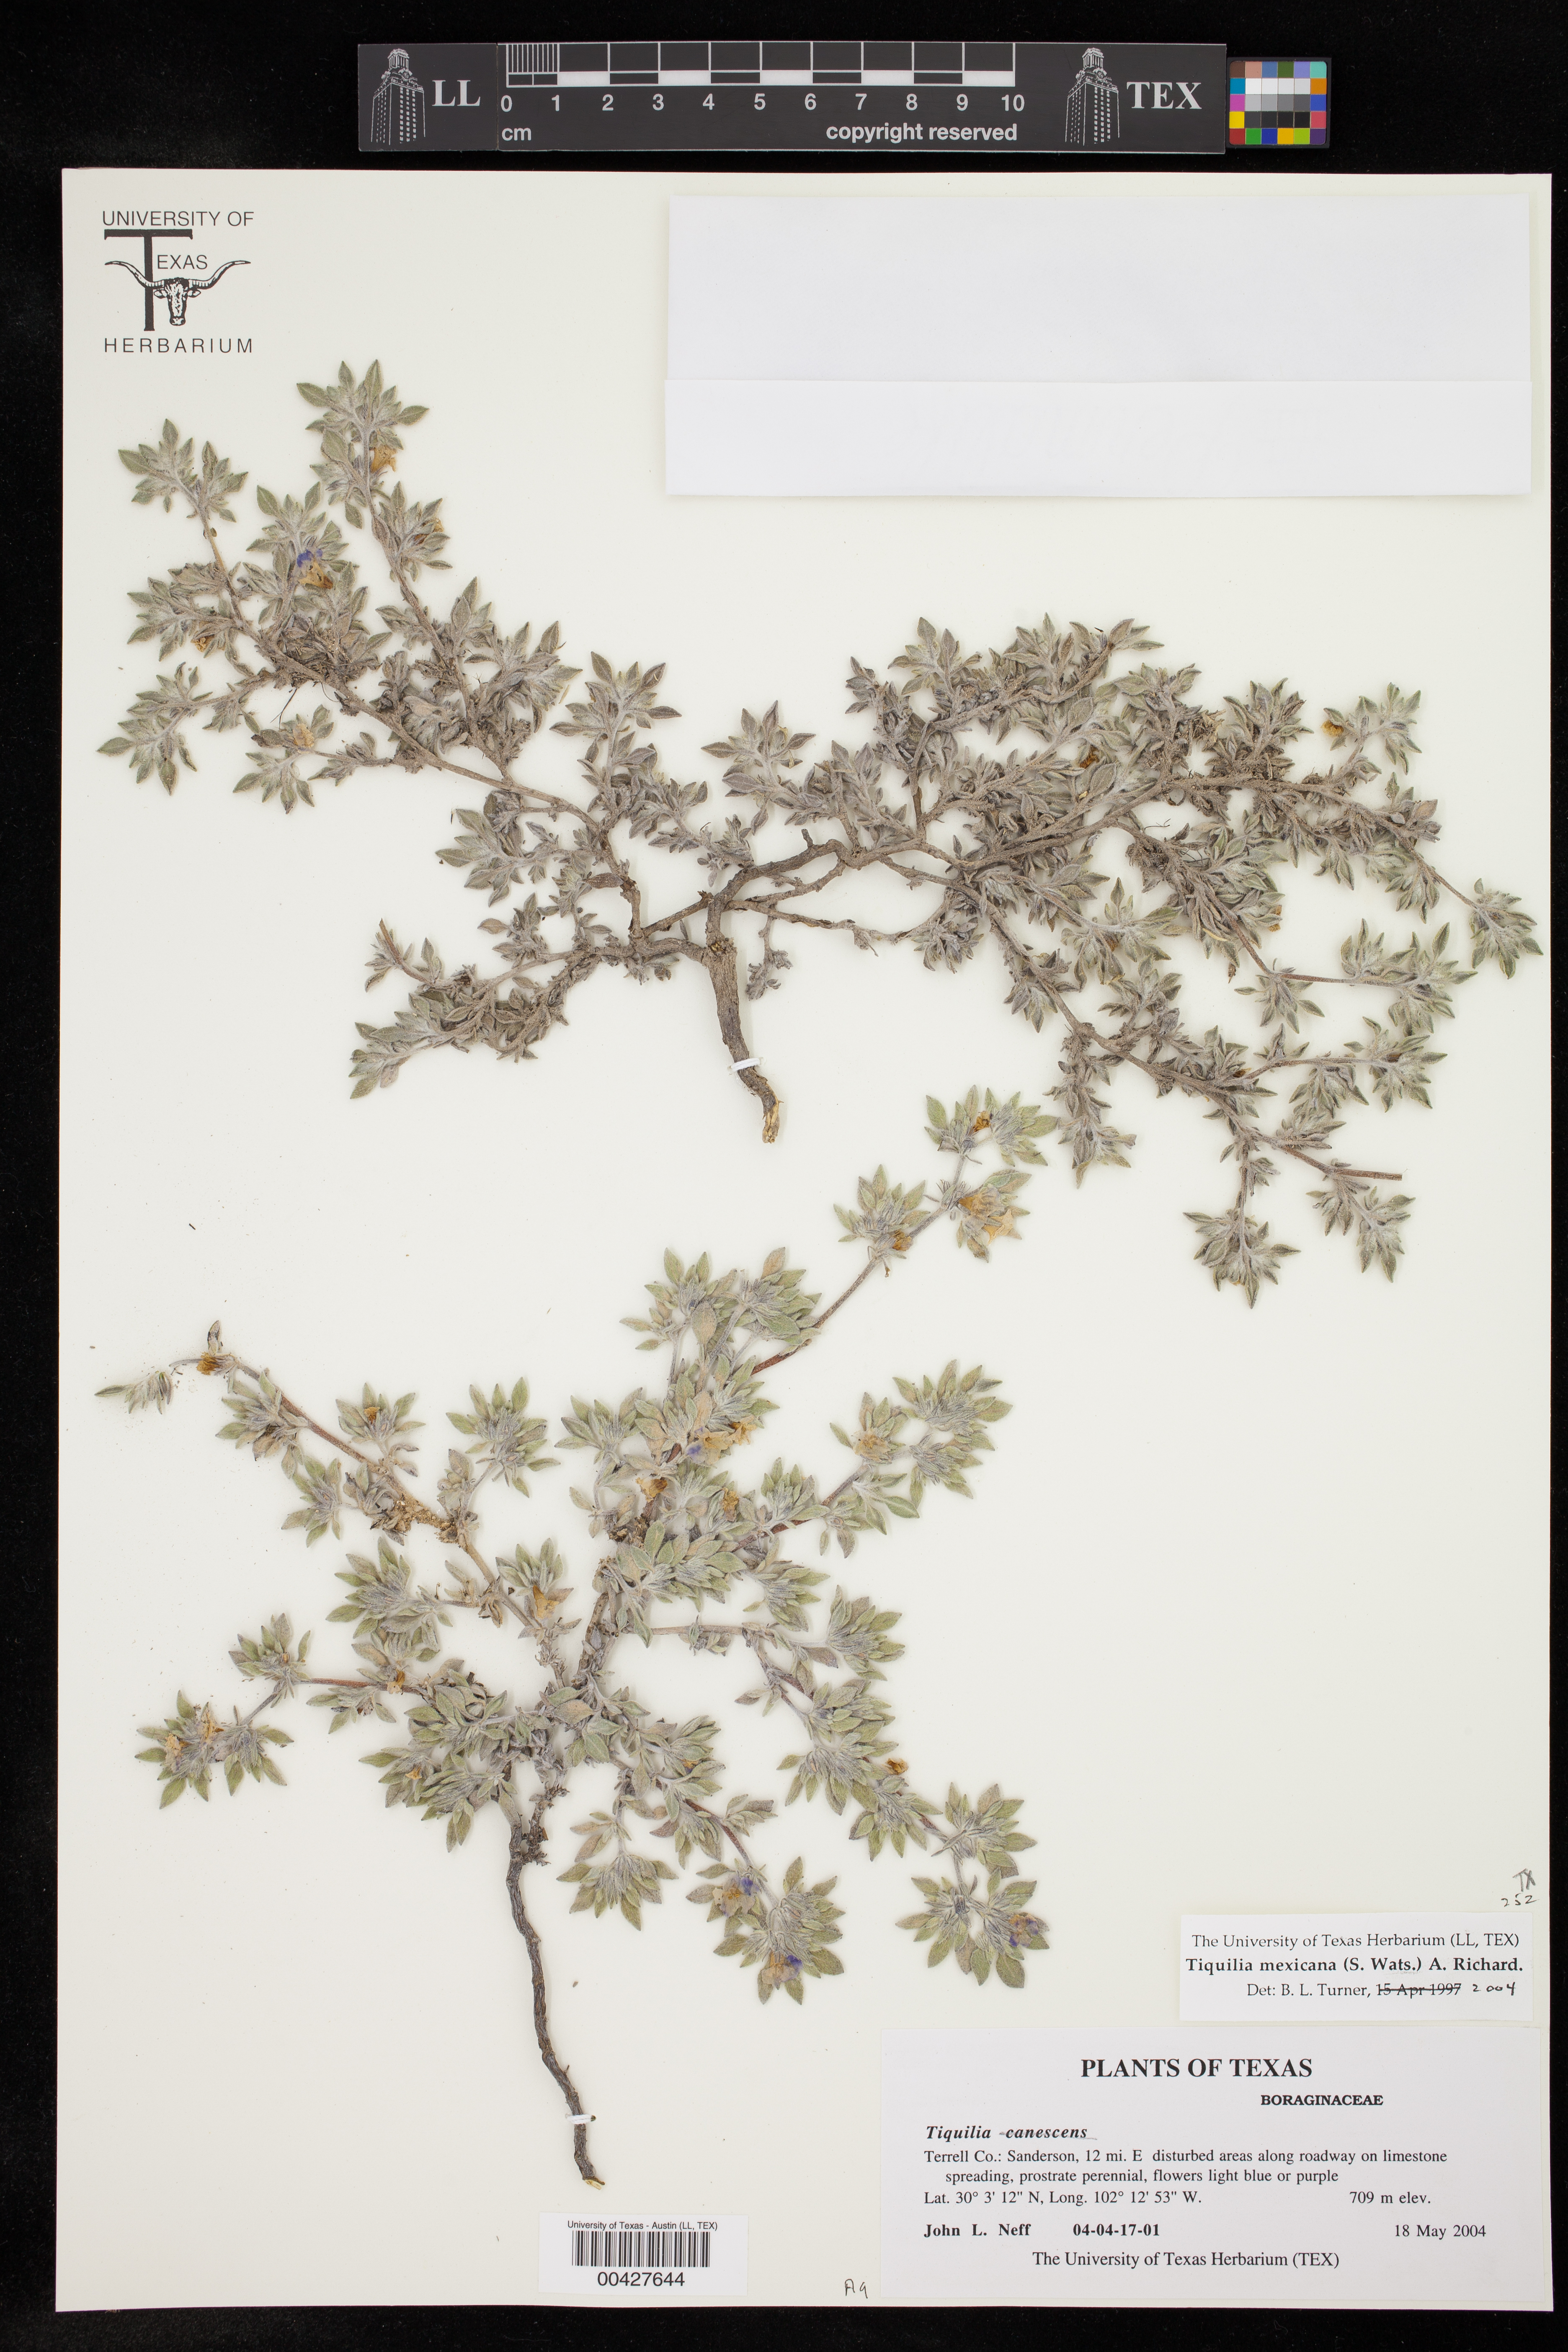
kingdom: Plantae
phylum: Tracheophyta
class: Magnoliopsida
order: Boraginales
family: Ehretiaceae
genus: Tiquilia
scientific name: Tiquilia mexicana
